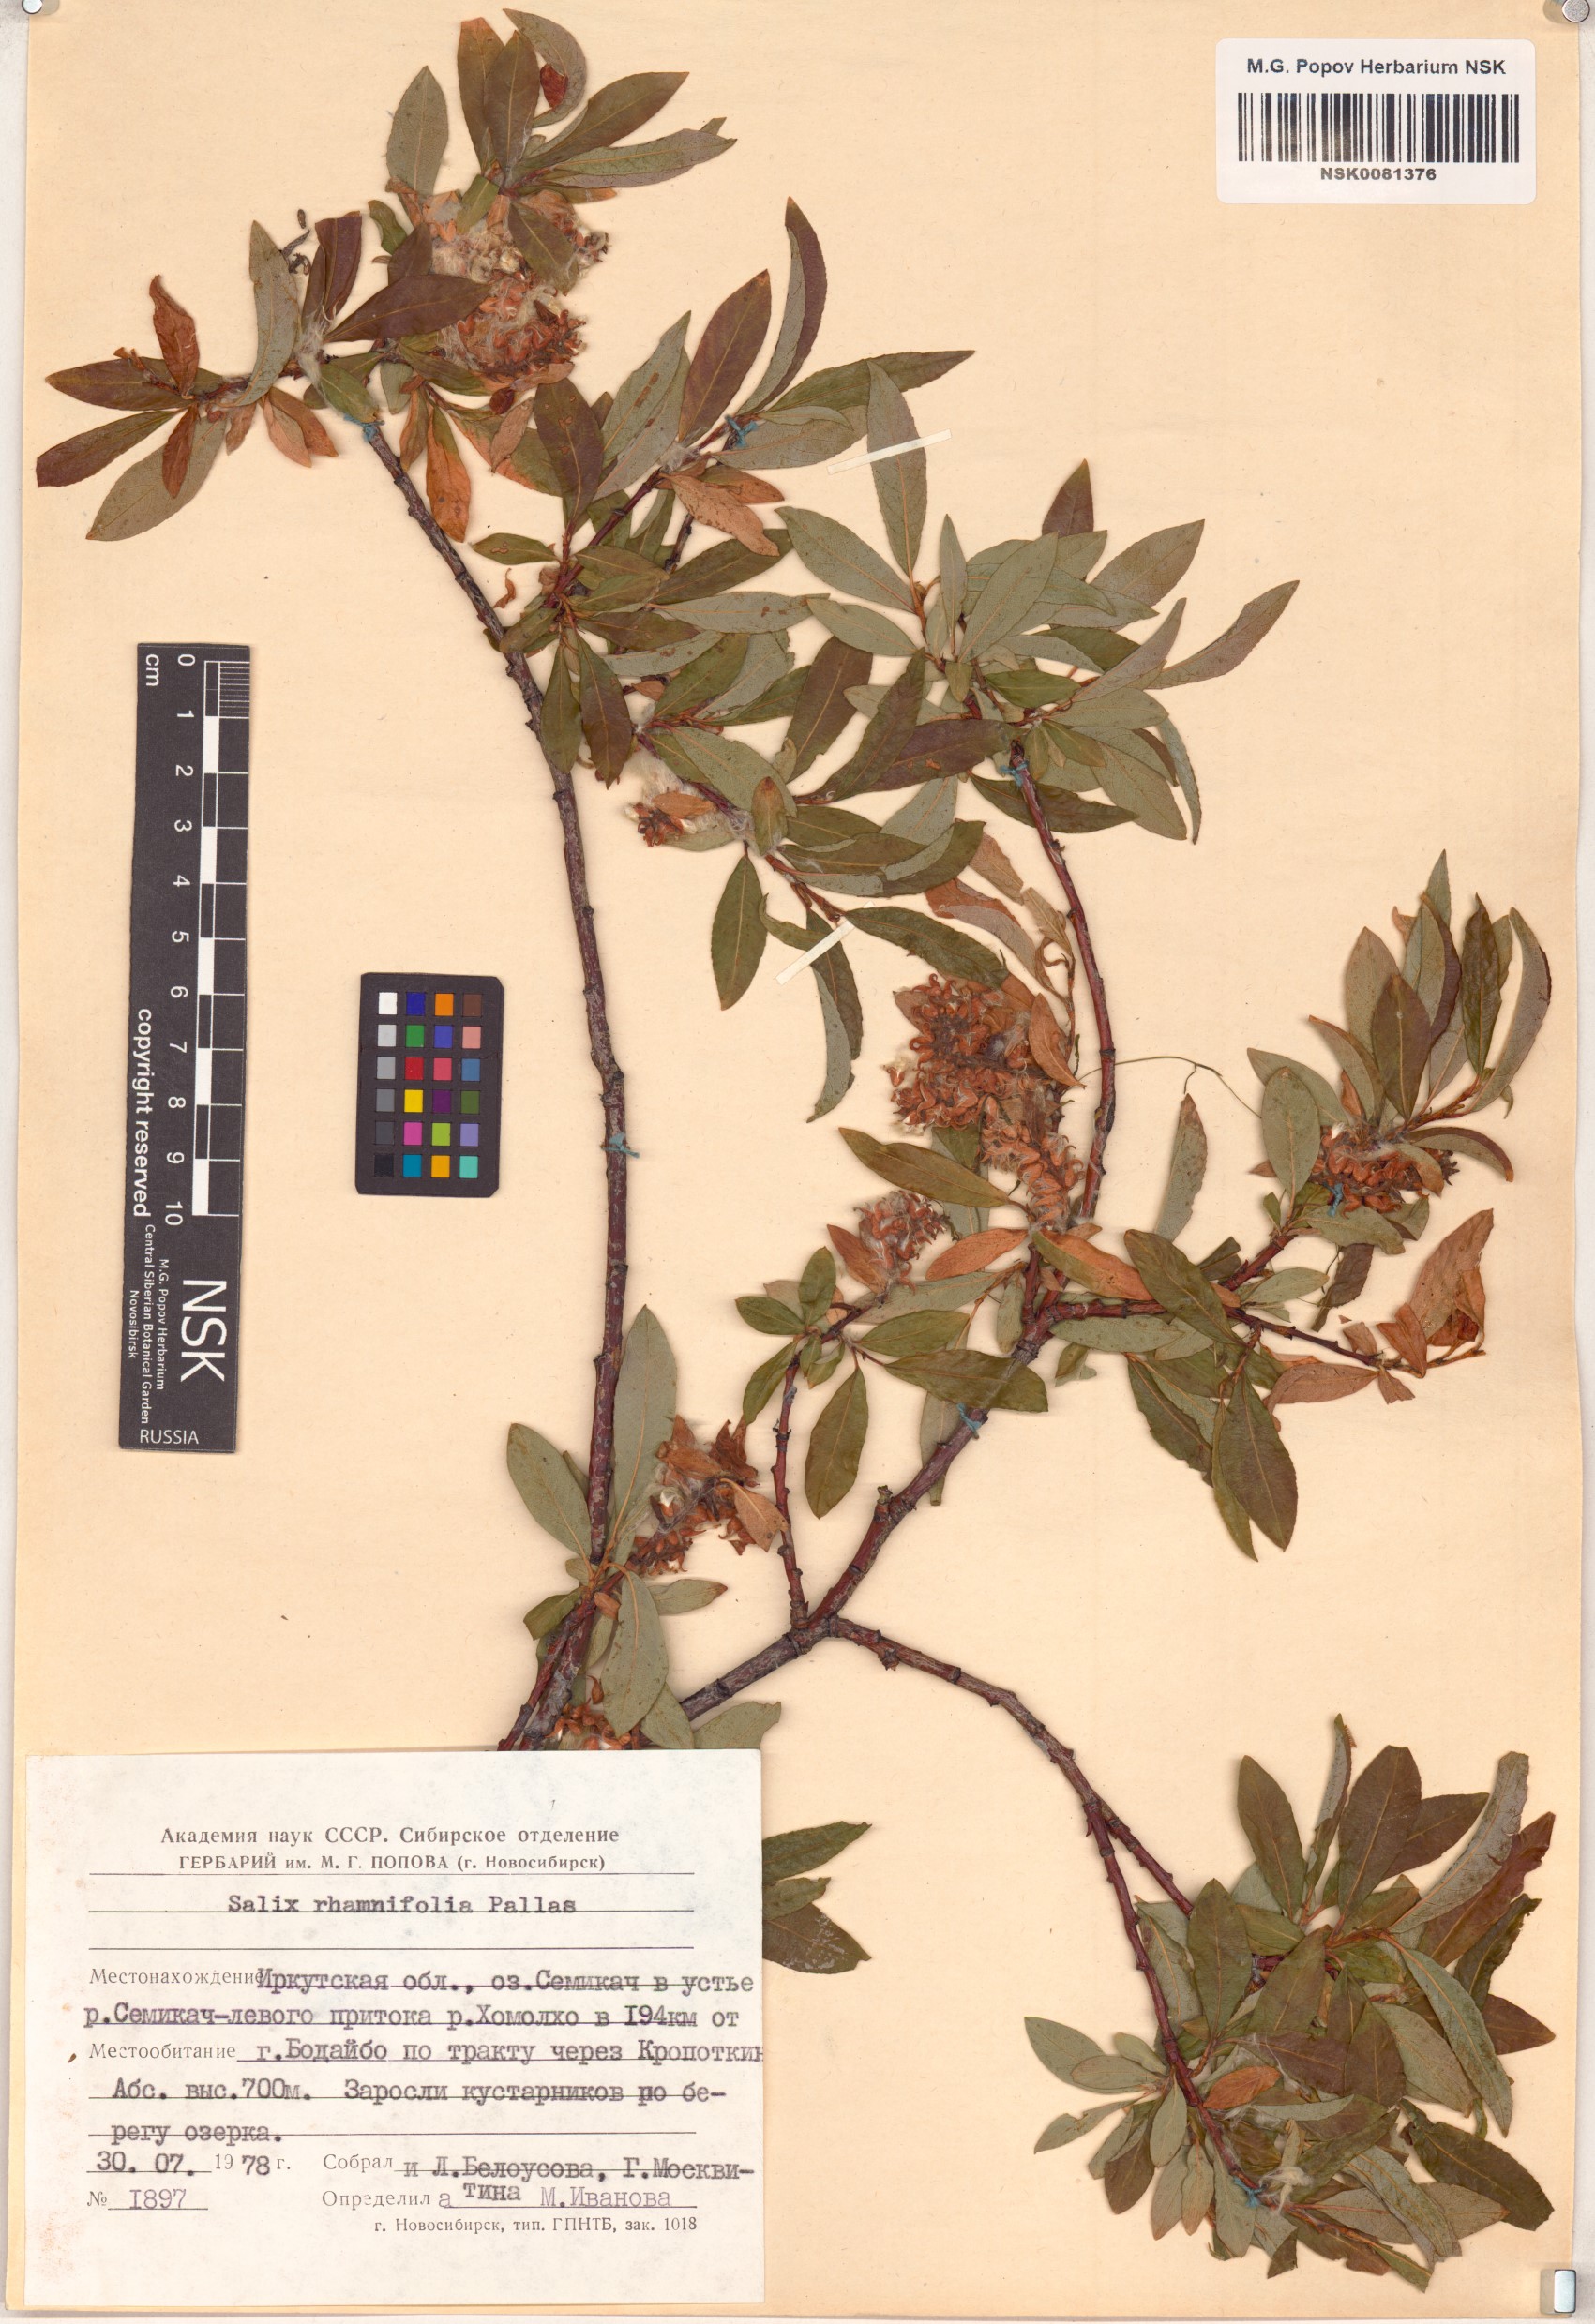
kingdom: Plantae
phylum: Tracheophyta
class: Magnoliopsida
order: Malpighiales
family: Salicaceae
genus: Salix
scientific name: Salix rhamnifolia
